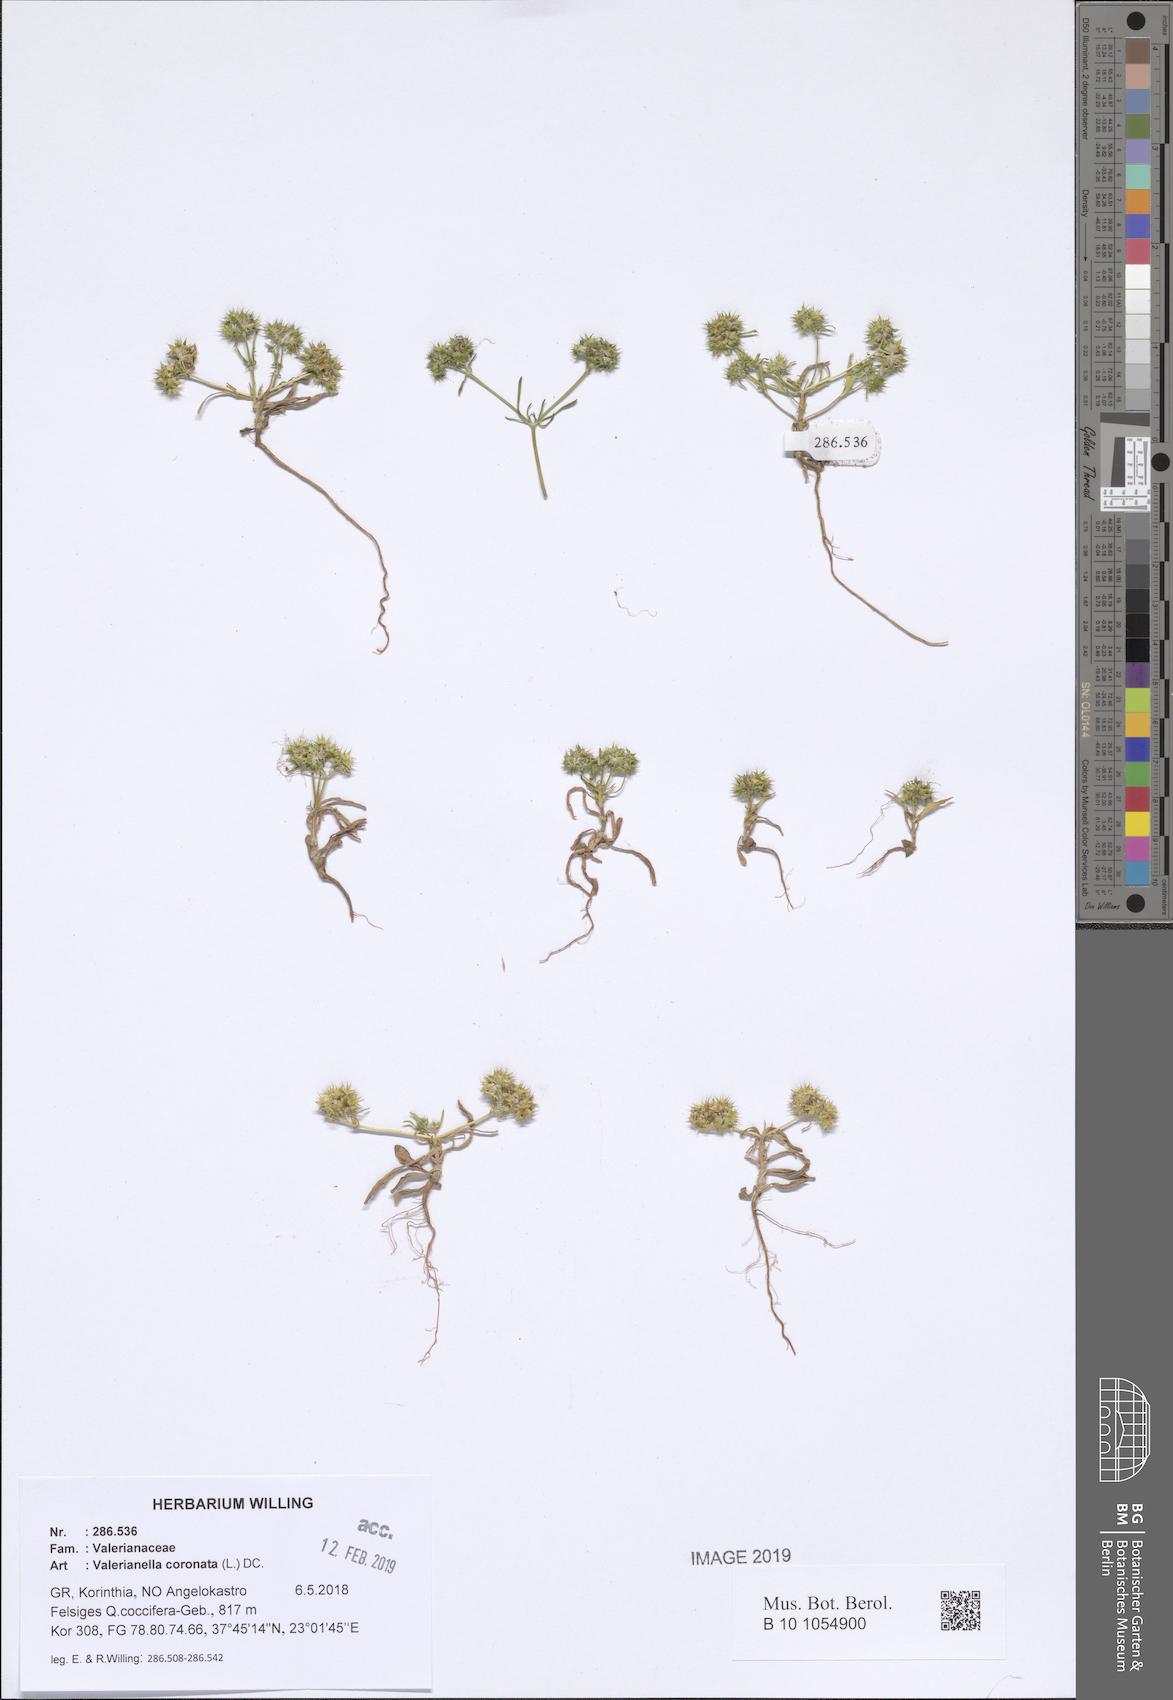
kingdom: Plantae
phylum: Tracheophyta
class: Magnoliopsida
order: Dipsacales
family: Caprifoliaceae
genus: Valerianella
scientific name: Valerianella coronata
